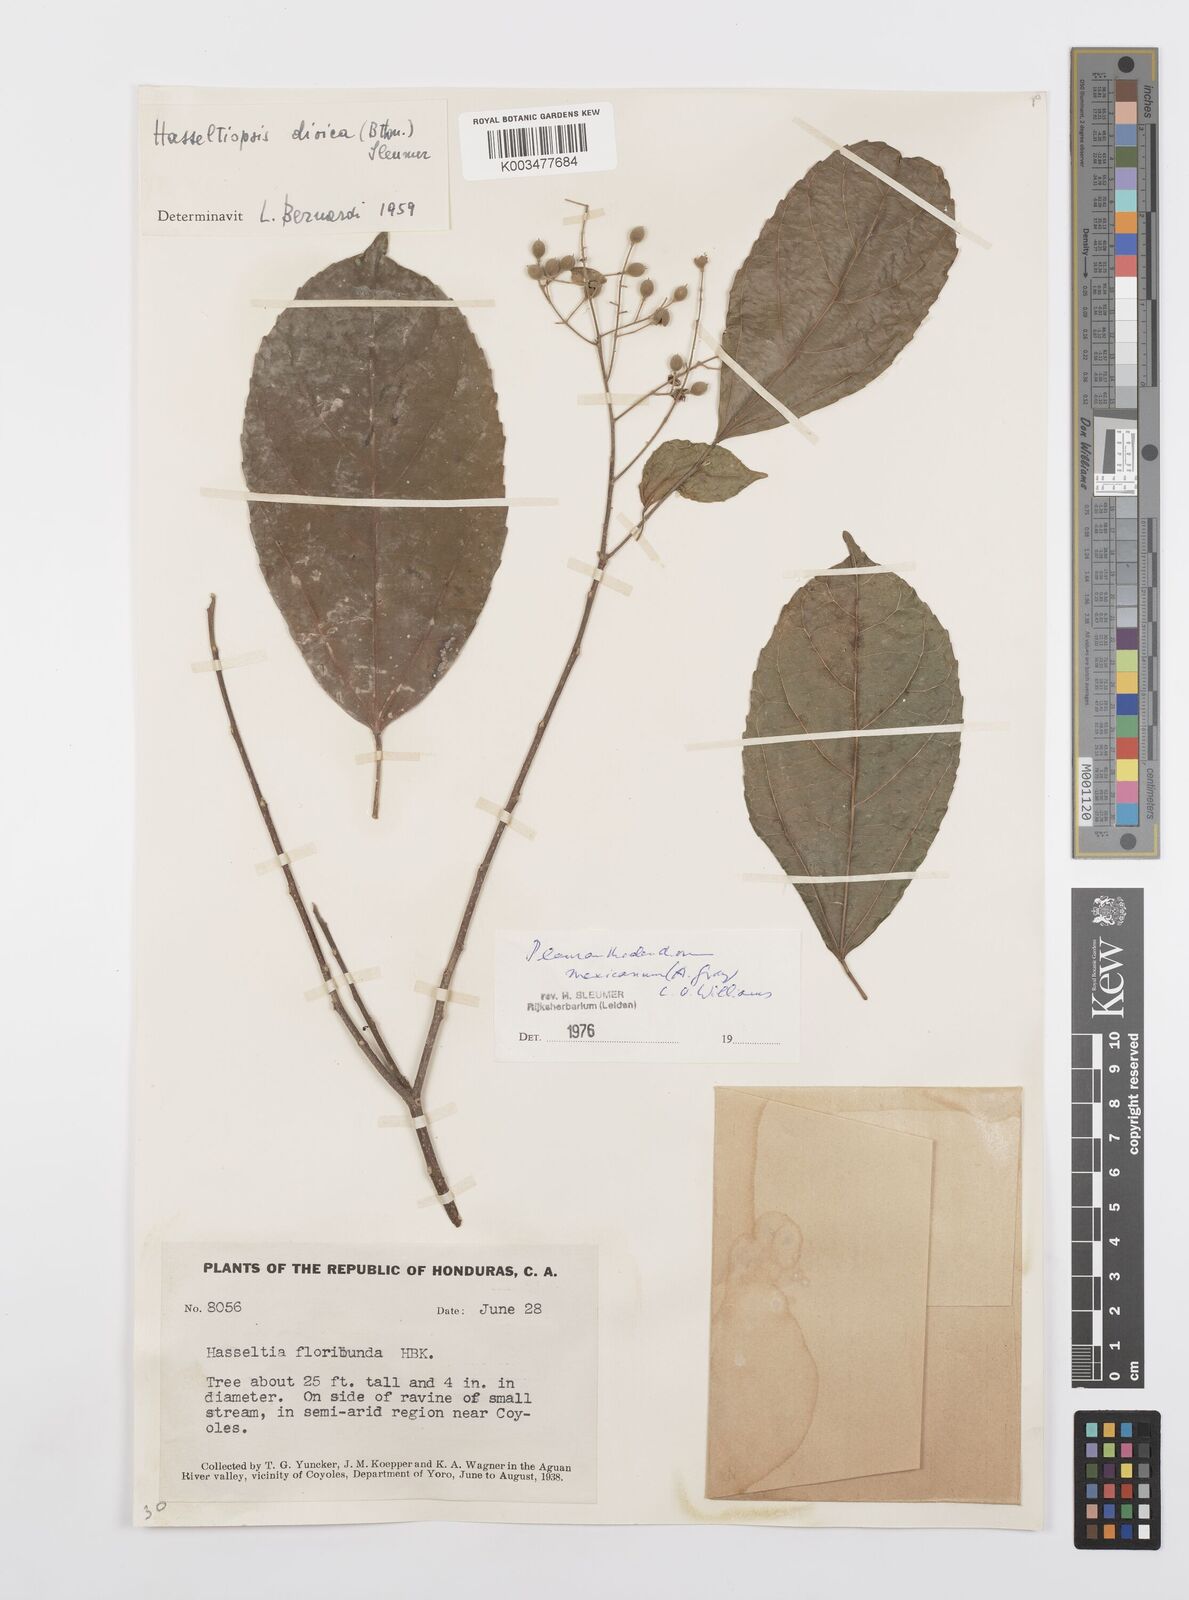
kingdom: Plantae
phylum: Tracheophyta
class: Magnoliopsida
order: Malpighiales
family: Salicaceae
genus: Pleuranthodendron
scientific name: Pleuranthodendron lindenii
